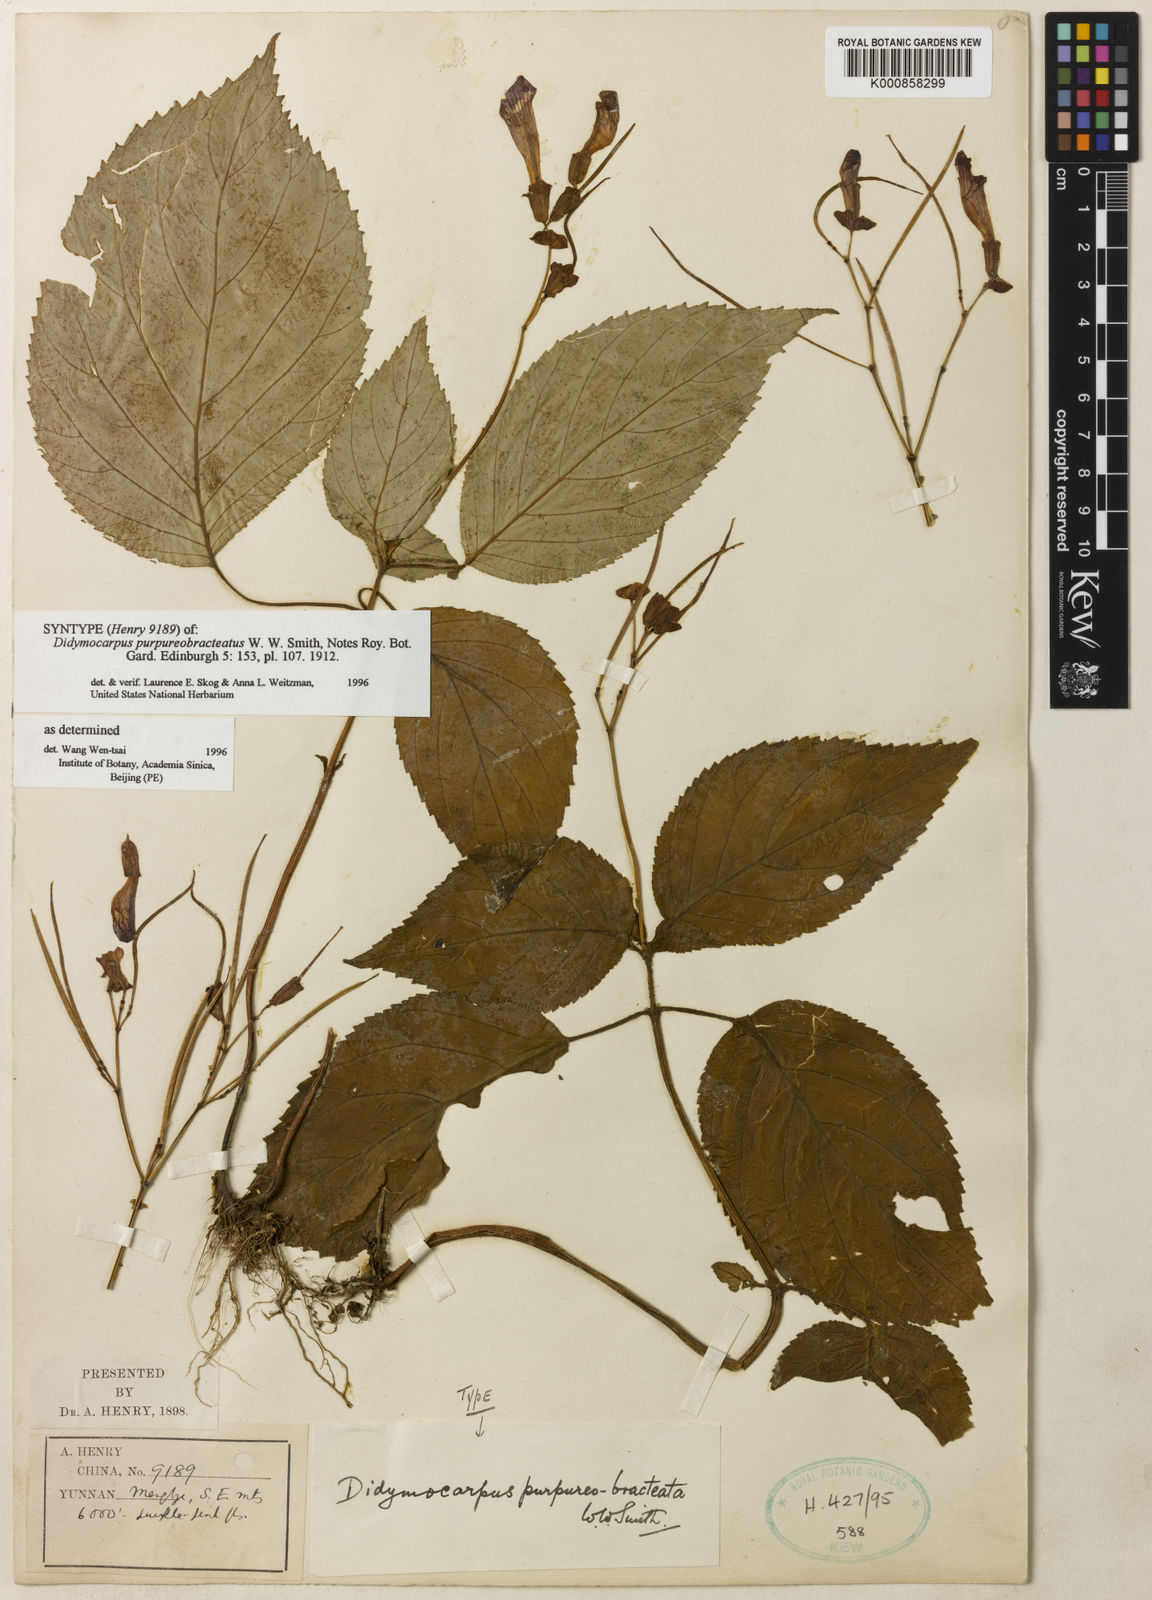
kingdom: Plantae
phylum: Tracheophyta
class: Magnoliopsida
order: Lamiales
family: Gesneriaceae
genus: Didymocarpus
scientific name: Didymocarpus purpureobracteatus
